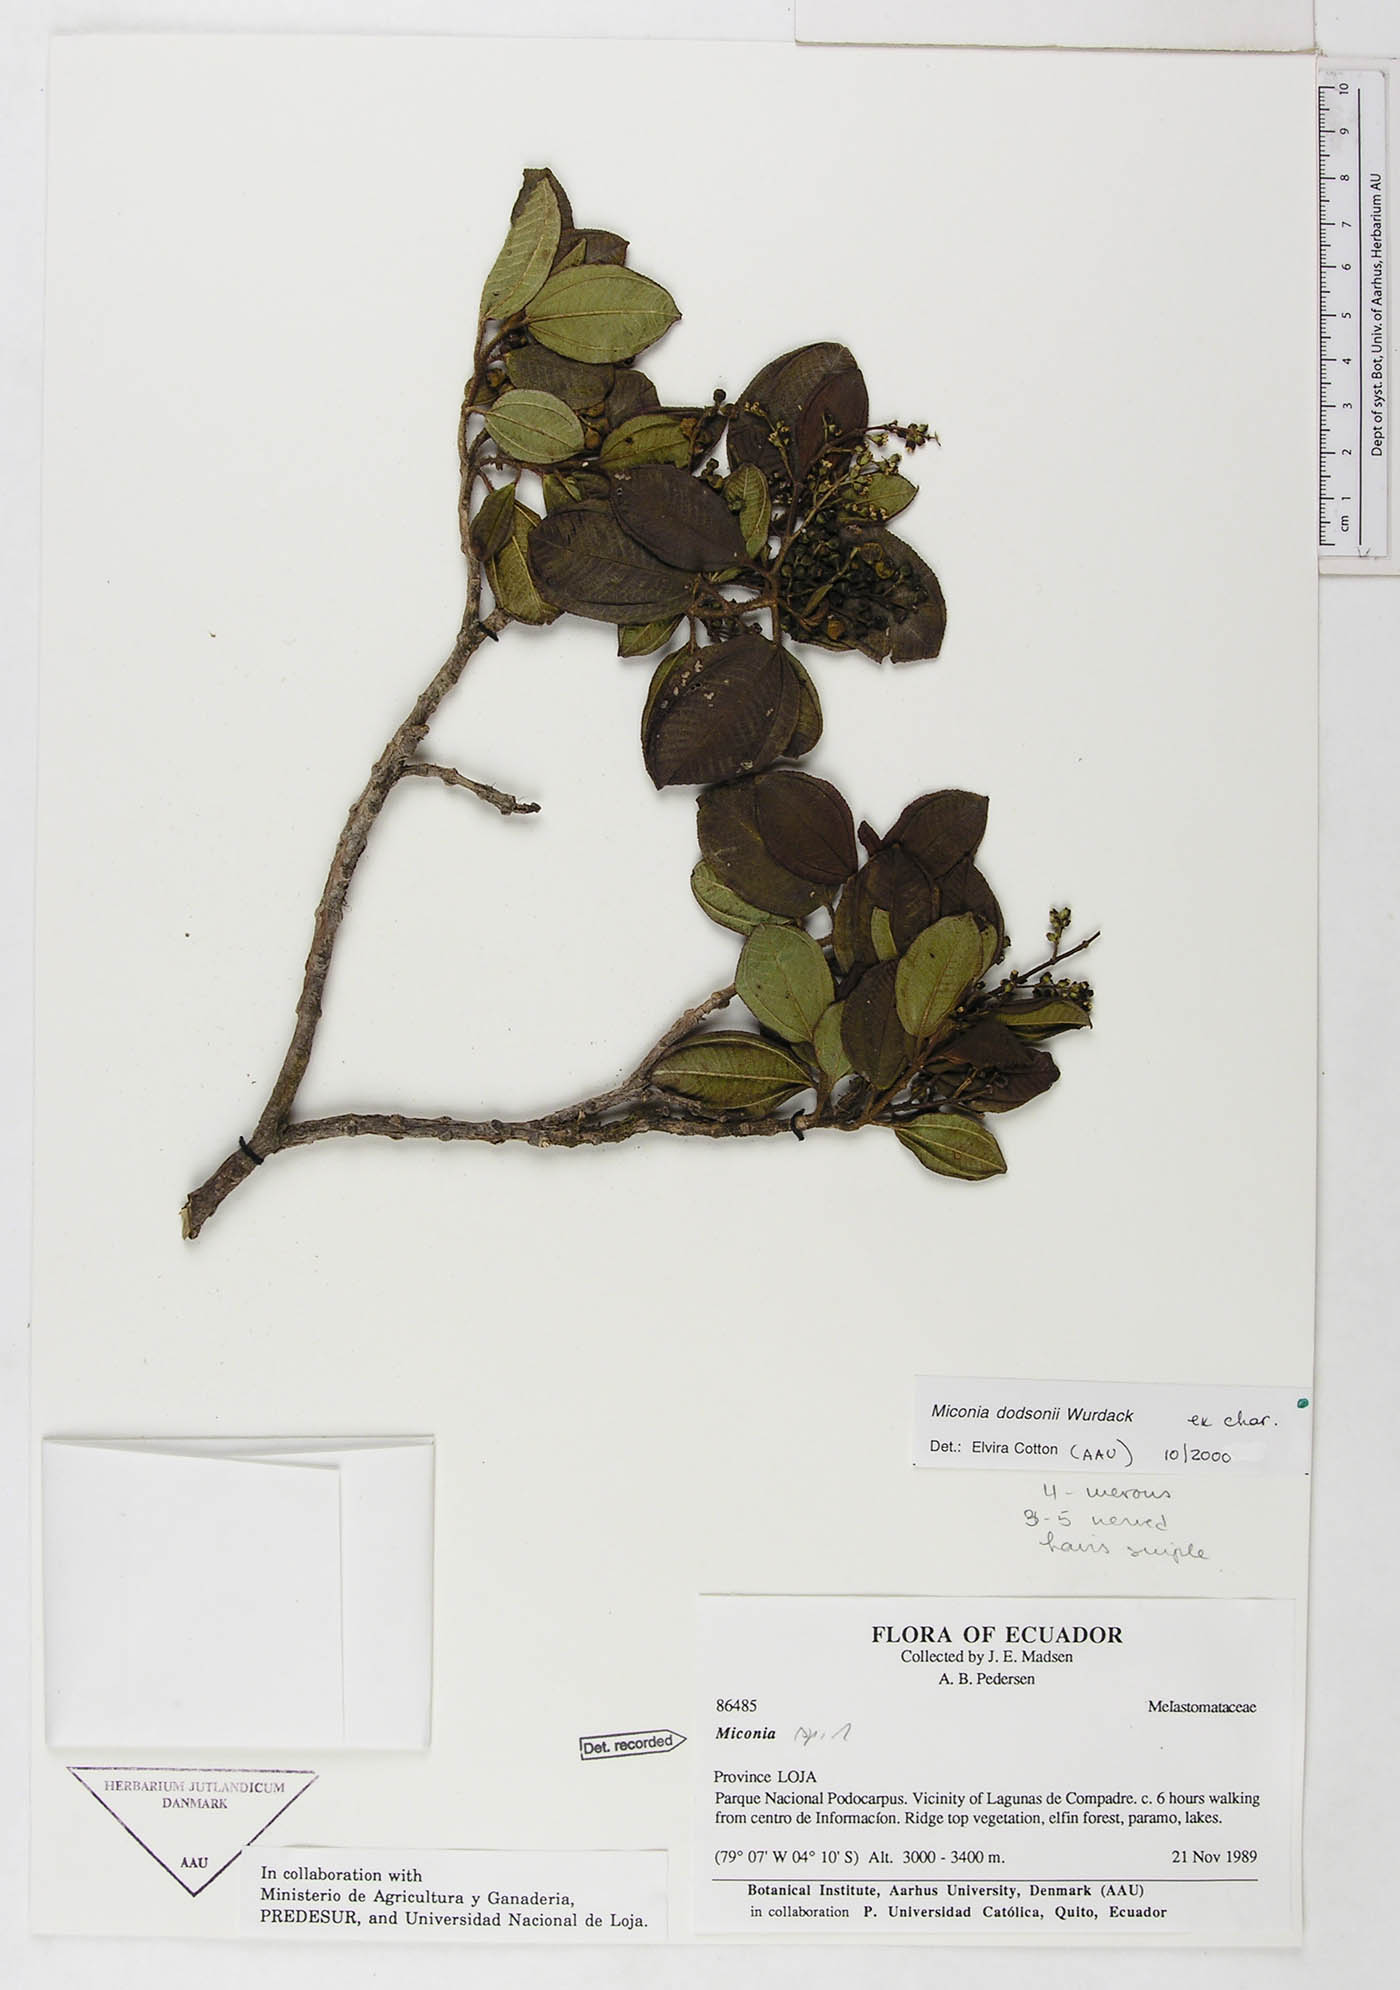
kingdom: Plantae
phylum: Tracheophyta
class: Magnoliopsida
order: Myrtales
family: Melastomataceae
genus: Miconia
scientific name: Miconia dodsonii
